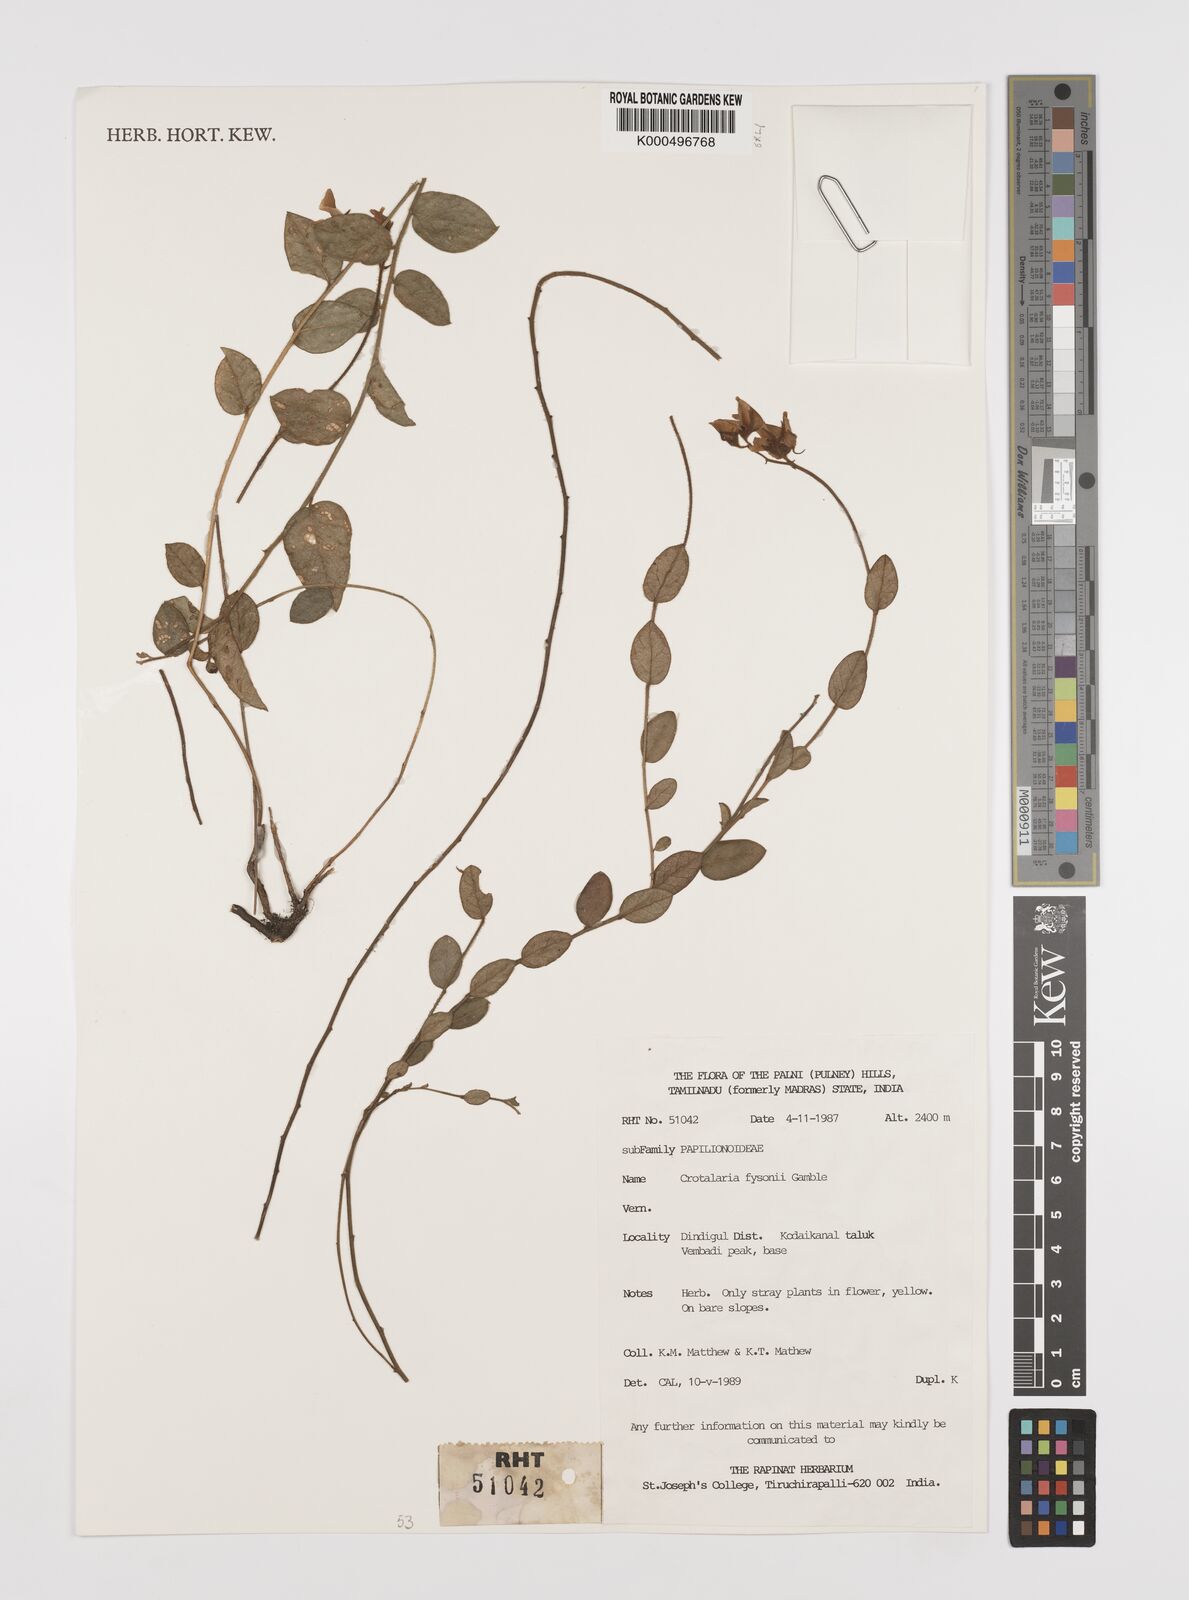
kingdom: Plantae
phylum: Tracheophyta
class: Magnoliopsida
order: Fabales
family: Fabaceae
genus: Crotalaria
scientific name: Crotalaria fysonii
